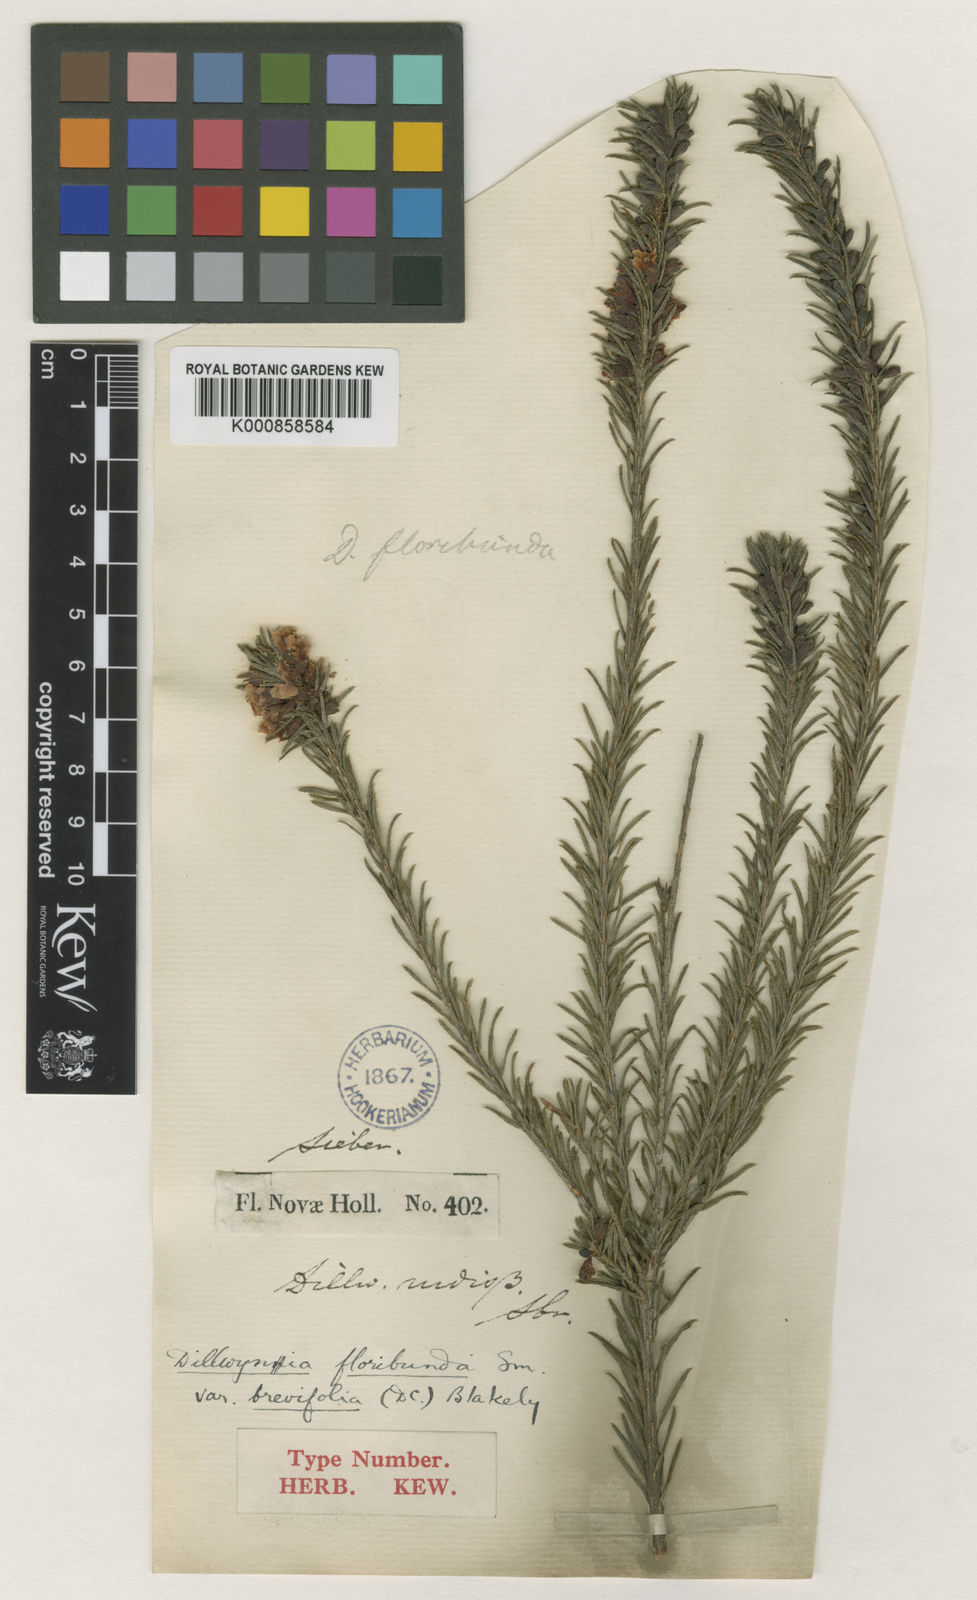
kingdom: Plantae
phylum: Tracheophyta
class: Magnoliopsida
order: Fabales
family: Fabaceae
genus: Dillwynia
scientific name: Dillwynia floribunda
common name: Eggs-and-bacon
